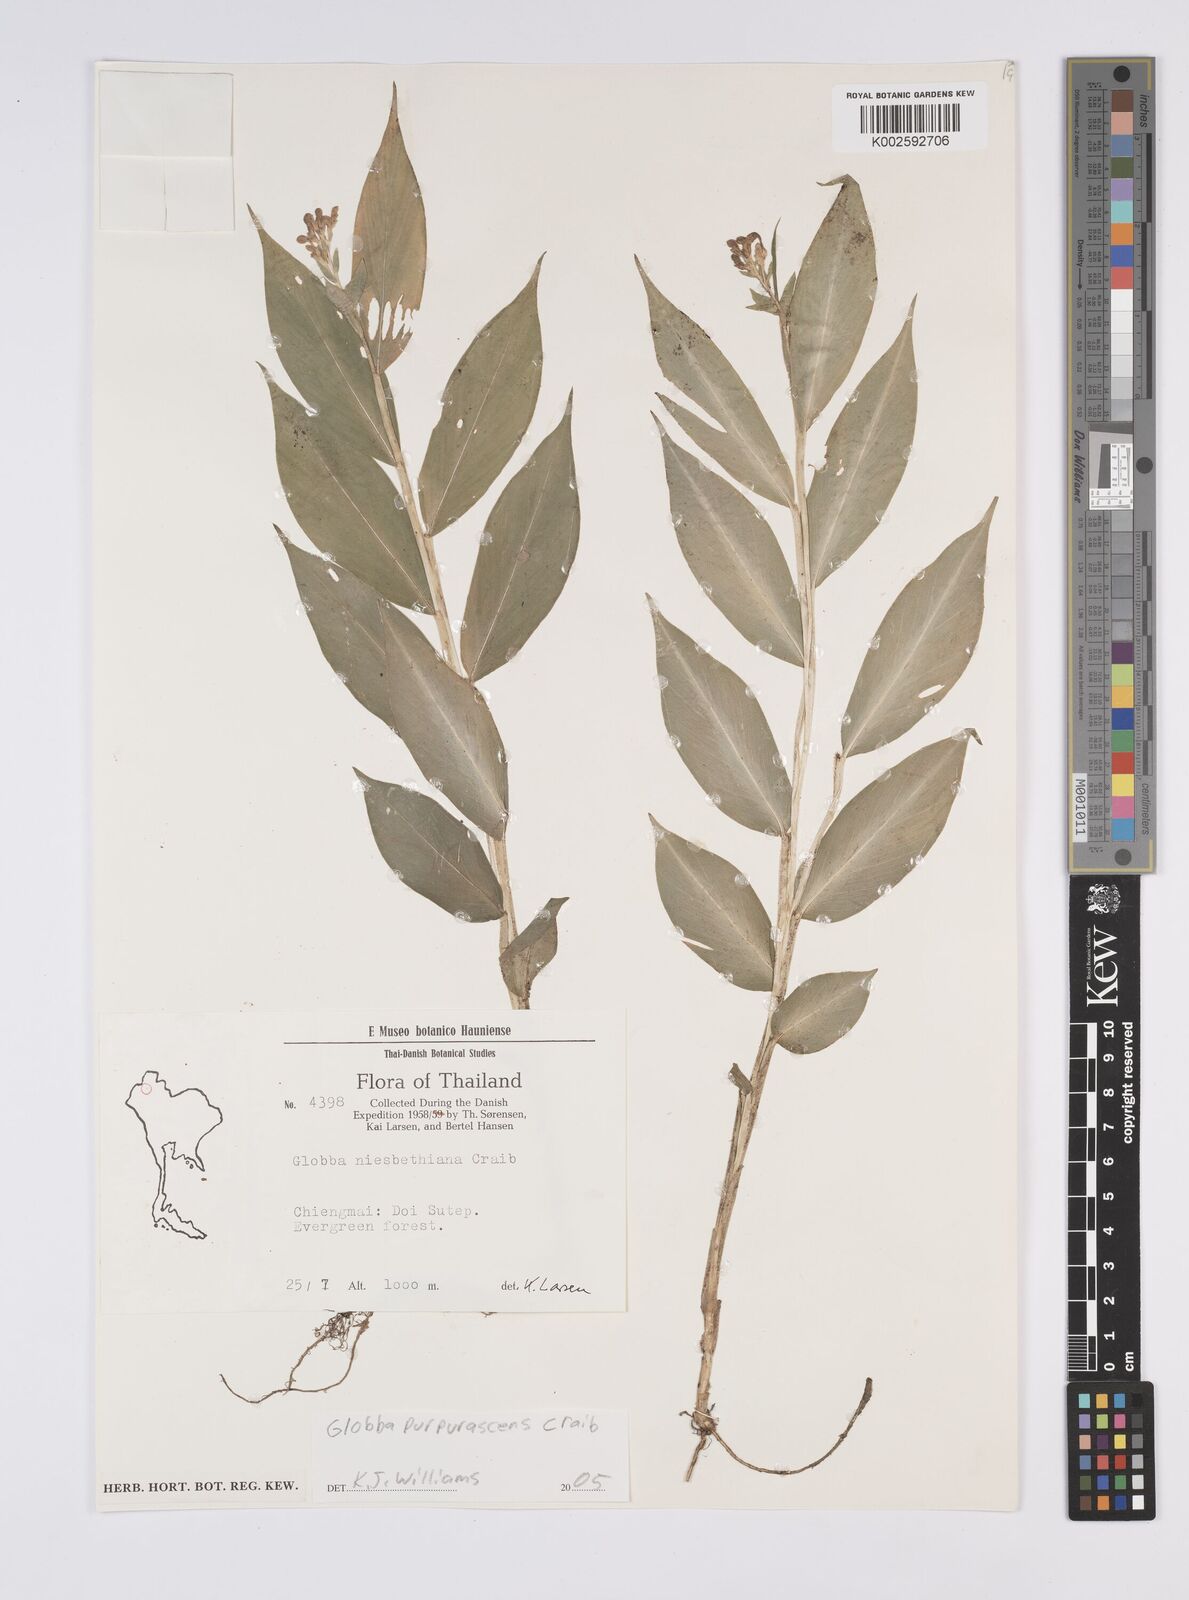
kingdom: Plantae
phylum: Tracheophyta
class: Liliopsida
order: Zingiberales
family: Zingiberaceae
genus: Globba
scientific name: Globba purpurascens
